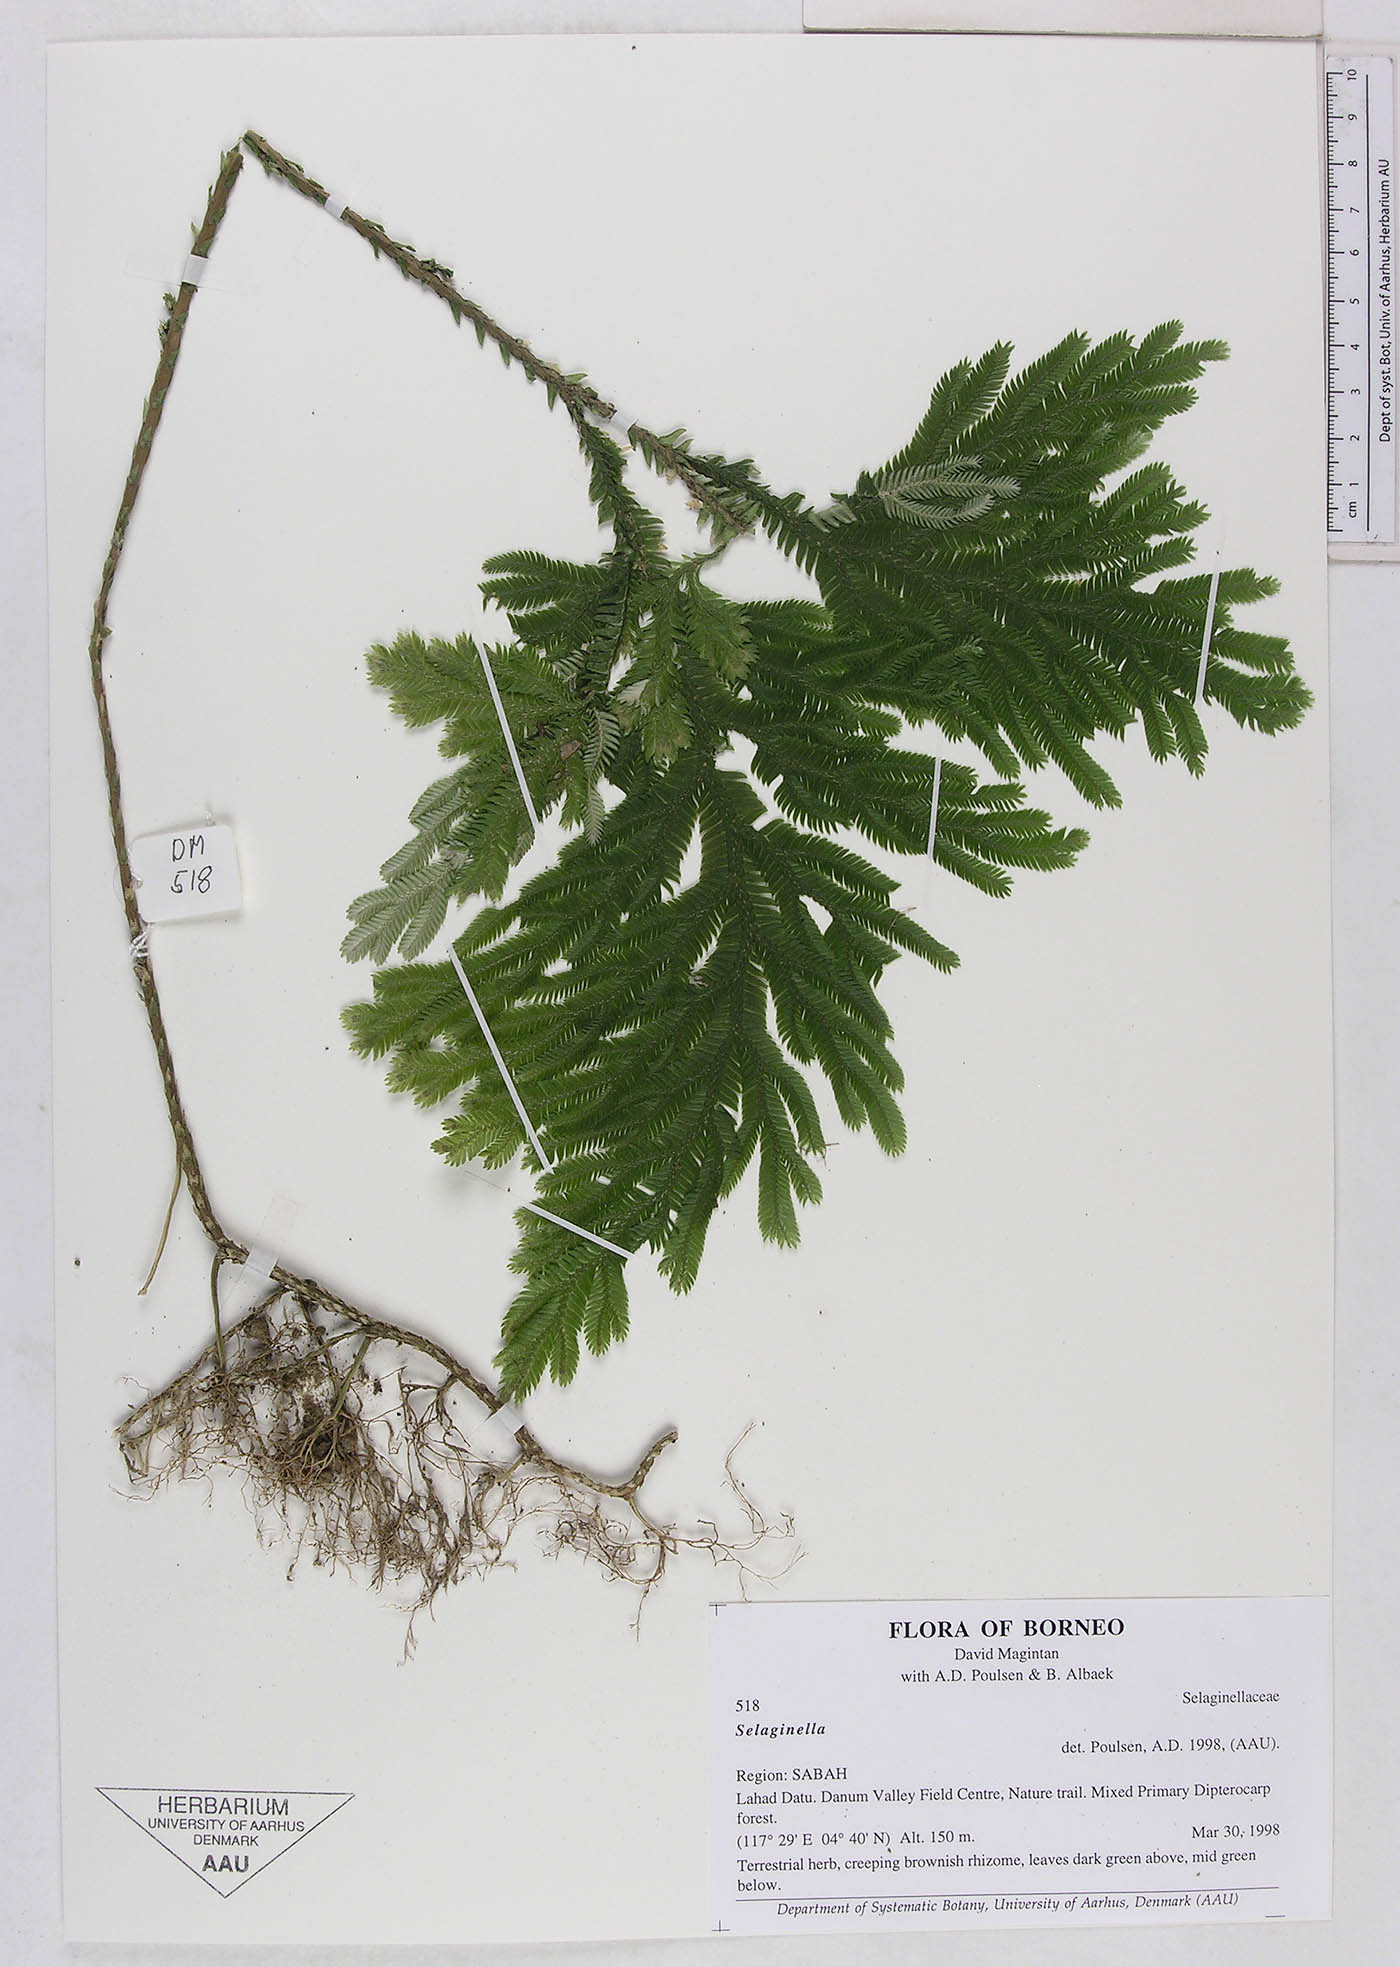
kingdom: Plantae
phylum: Tracheophyta
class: Lycopodiopsida
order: Selaginellales
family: Selaginellaceae
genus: Selaginella
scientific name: Selaginella
